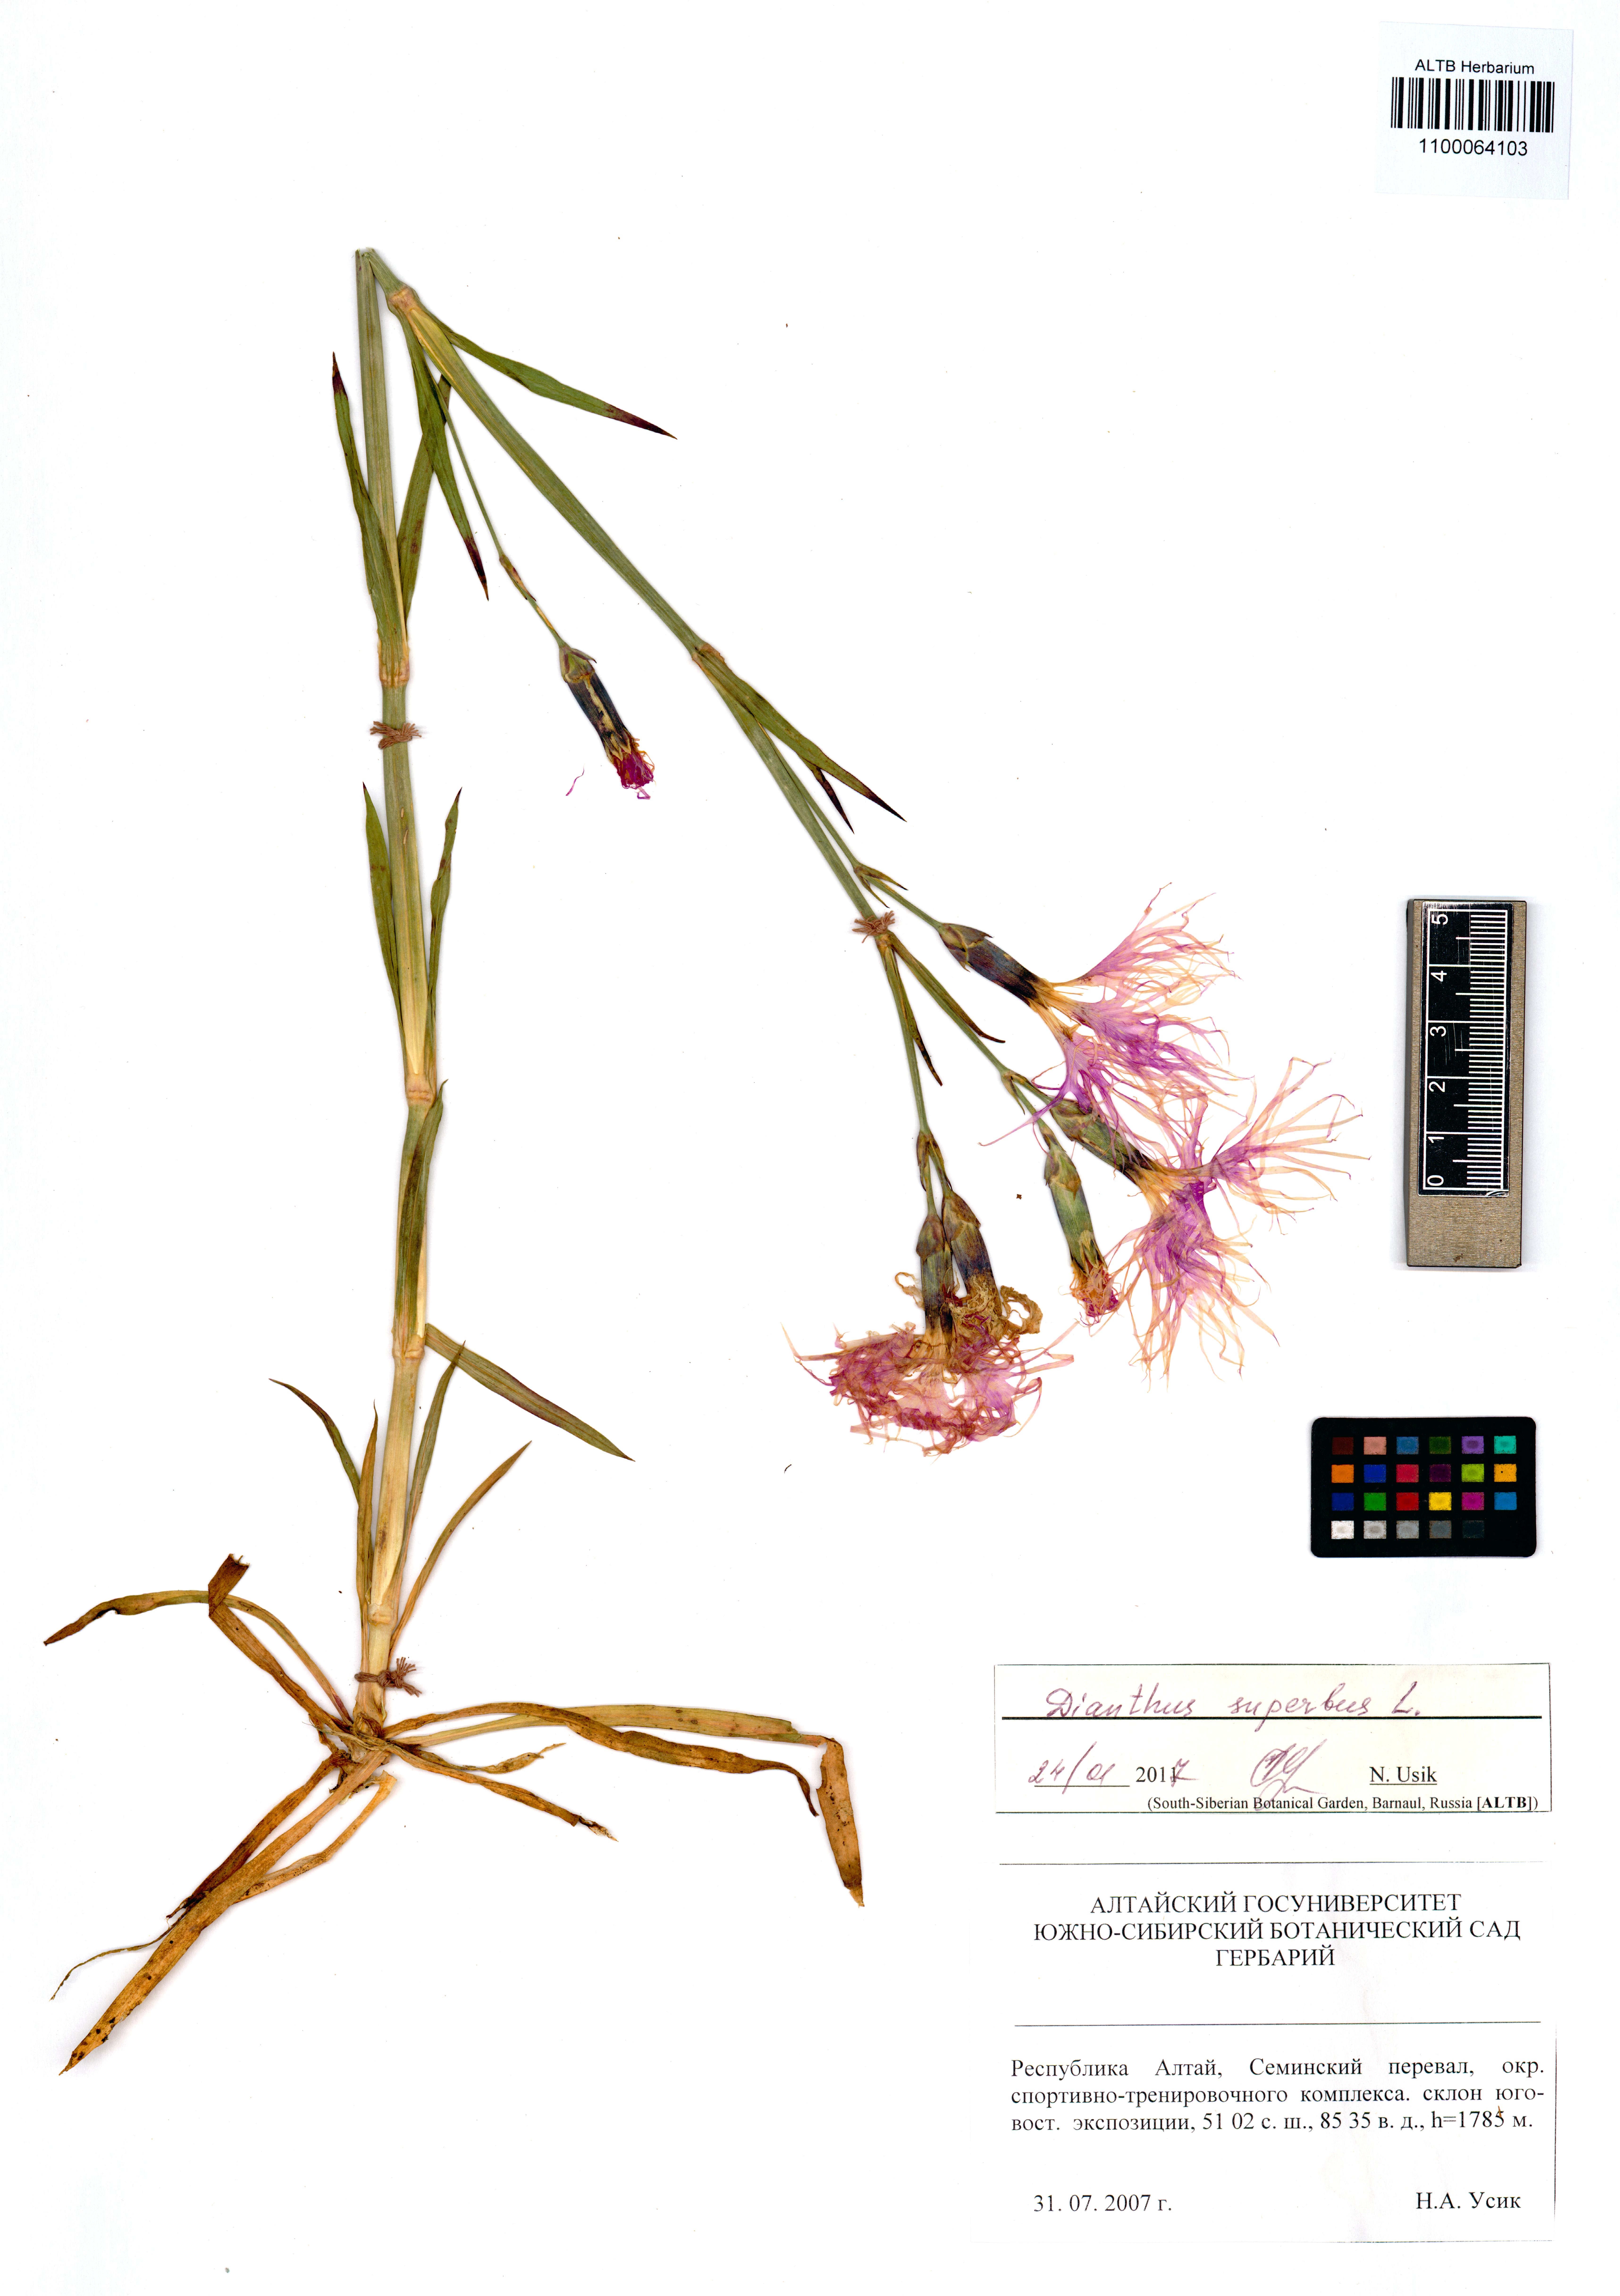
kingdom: Plantae
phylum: Tracheophyta
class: Magnoliopsida
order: Caryophyllales
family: Caryophyllaceae
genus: Dianthus
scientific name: Dianthus superbus
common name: Fringed pink
